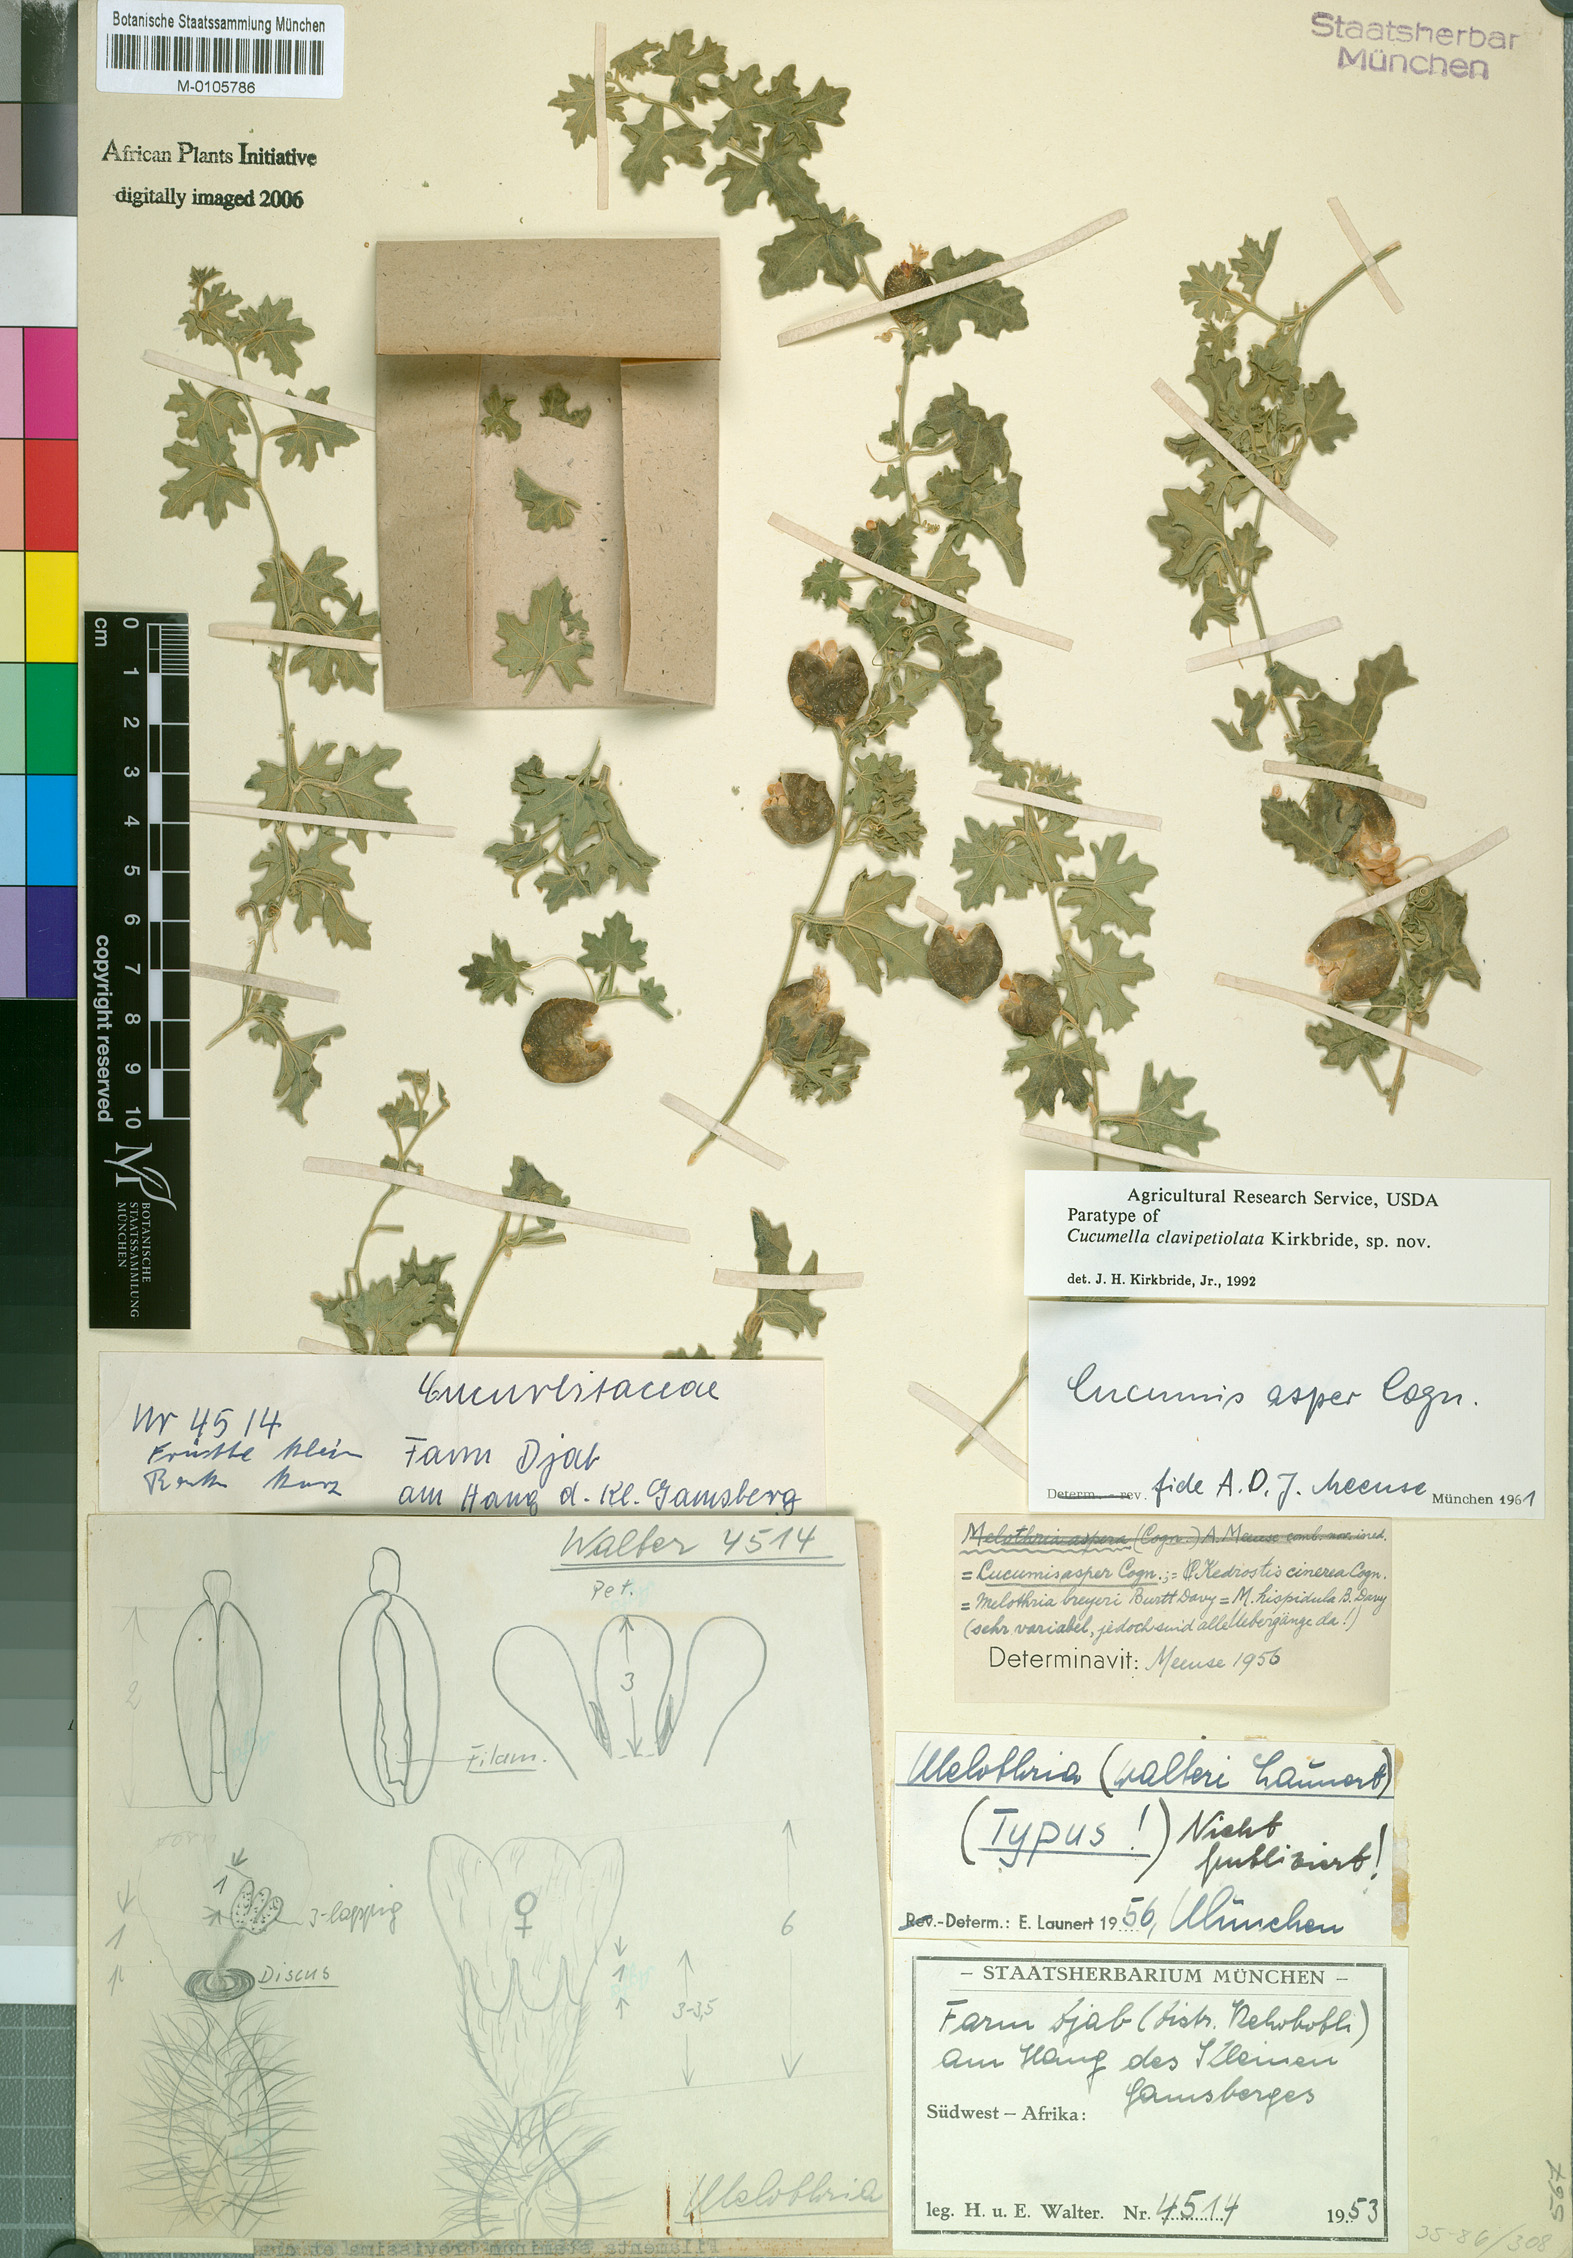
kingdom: Plantae
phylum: Tracheophyta
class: Magnoliopsida
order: Cucurbitales
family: Cucurbitaceae
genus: Cucumis
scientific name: Cucumis aspera
